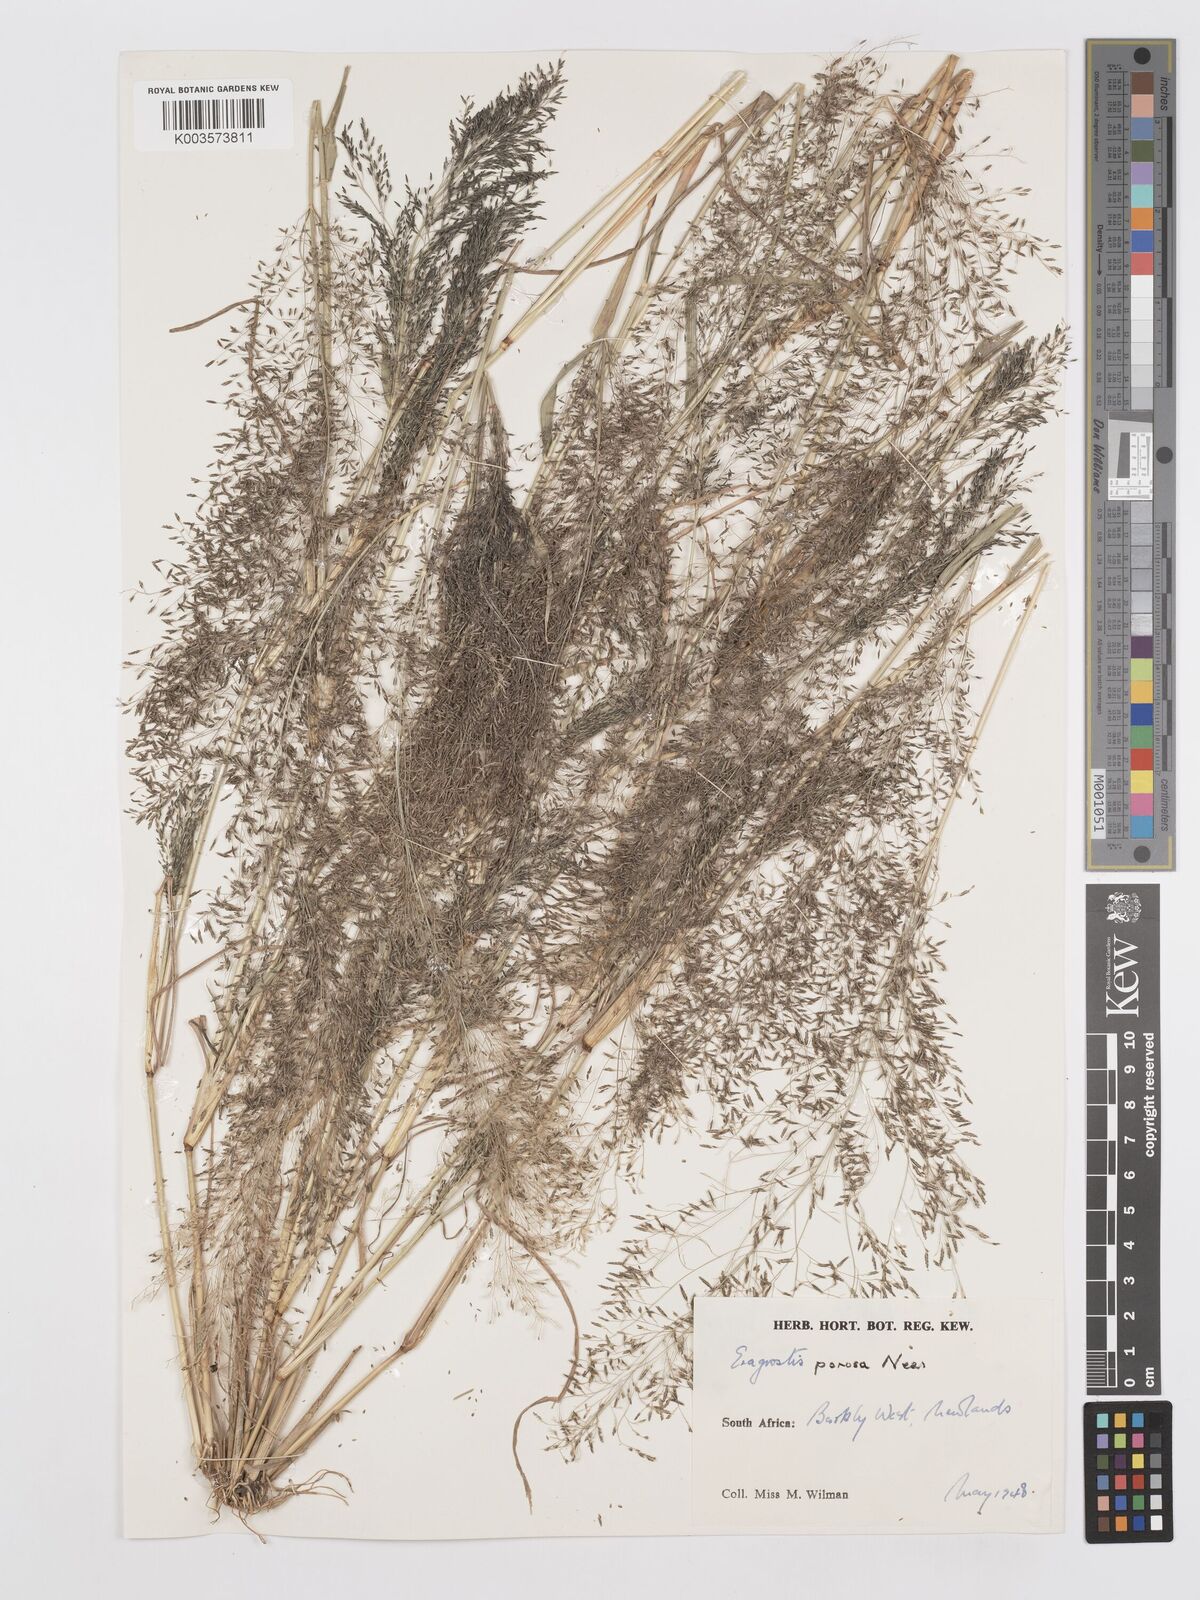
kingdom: Plantae
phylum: Tracheophyta
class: Liliopsida
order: Poales
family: Poaceae
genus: Eragrostis
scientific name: Eragrostis porosa
